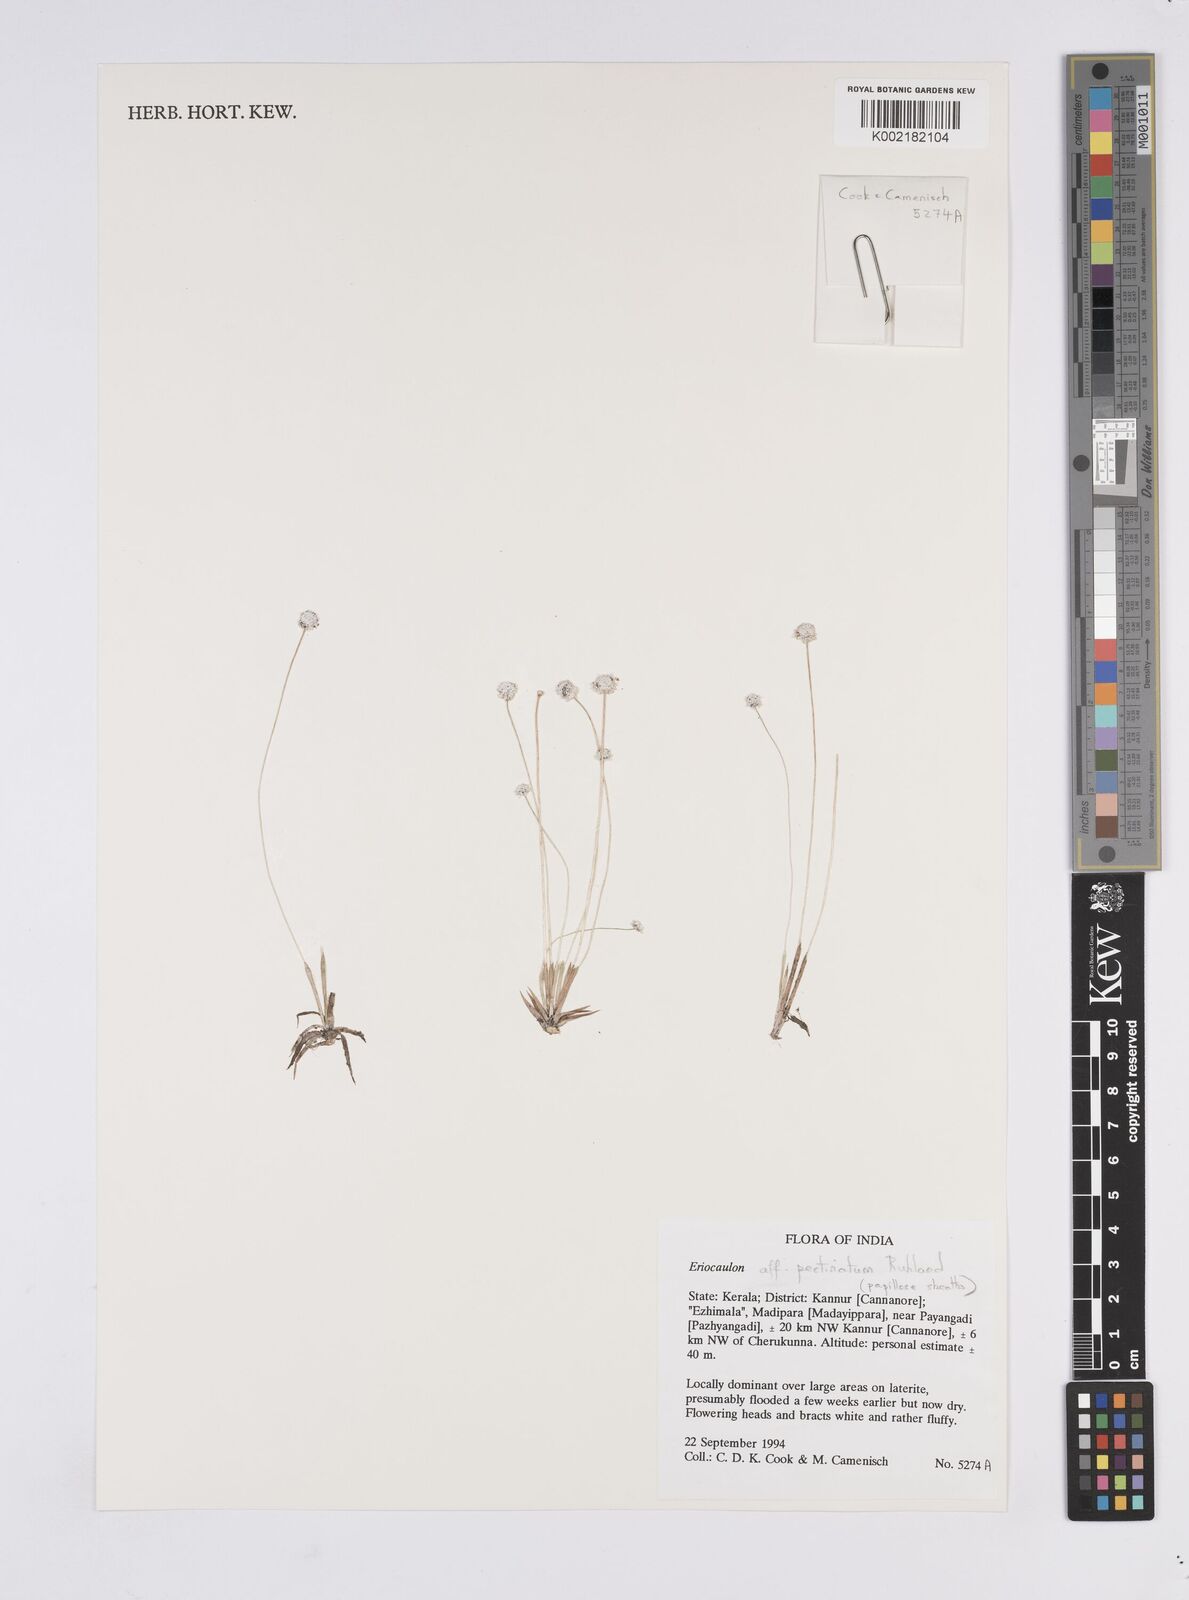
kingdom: Plantae
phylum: Tracheophyta
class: Liliopsida
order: Poales
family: Eriocaulaceae
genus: Eriocaulon
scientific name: Eriocaulon
